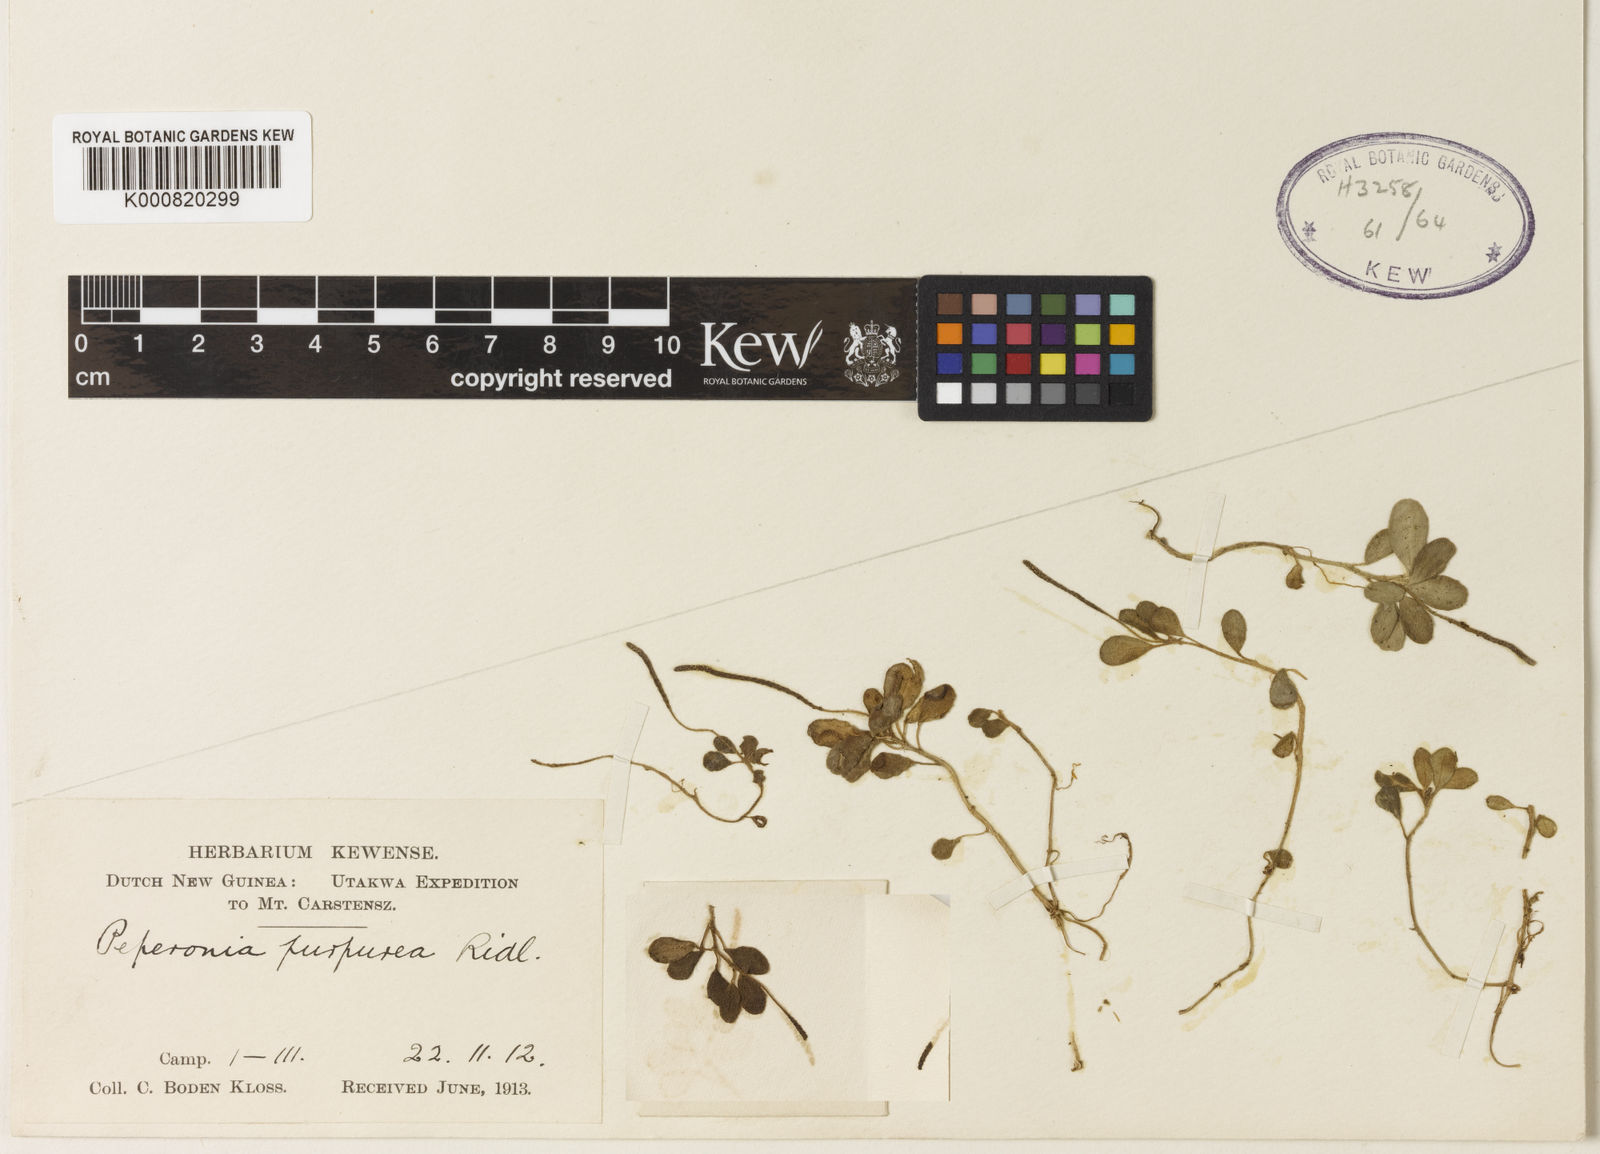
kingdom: Plantae
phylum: Tracheophyta
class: Magnoliopsida
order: Piperales
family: Piperaceae
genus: Peperomia
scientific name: Peperomia colossina
